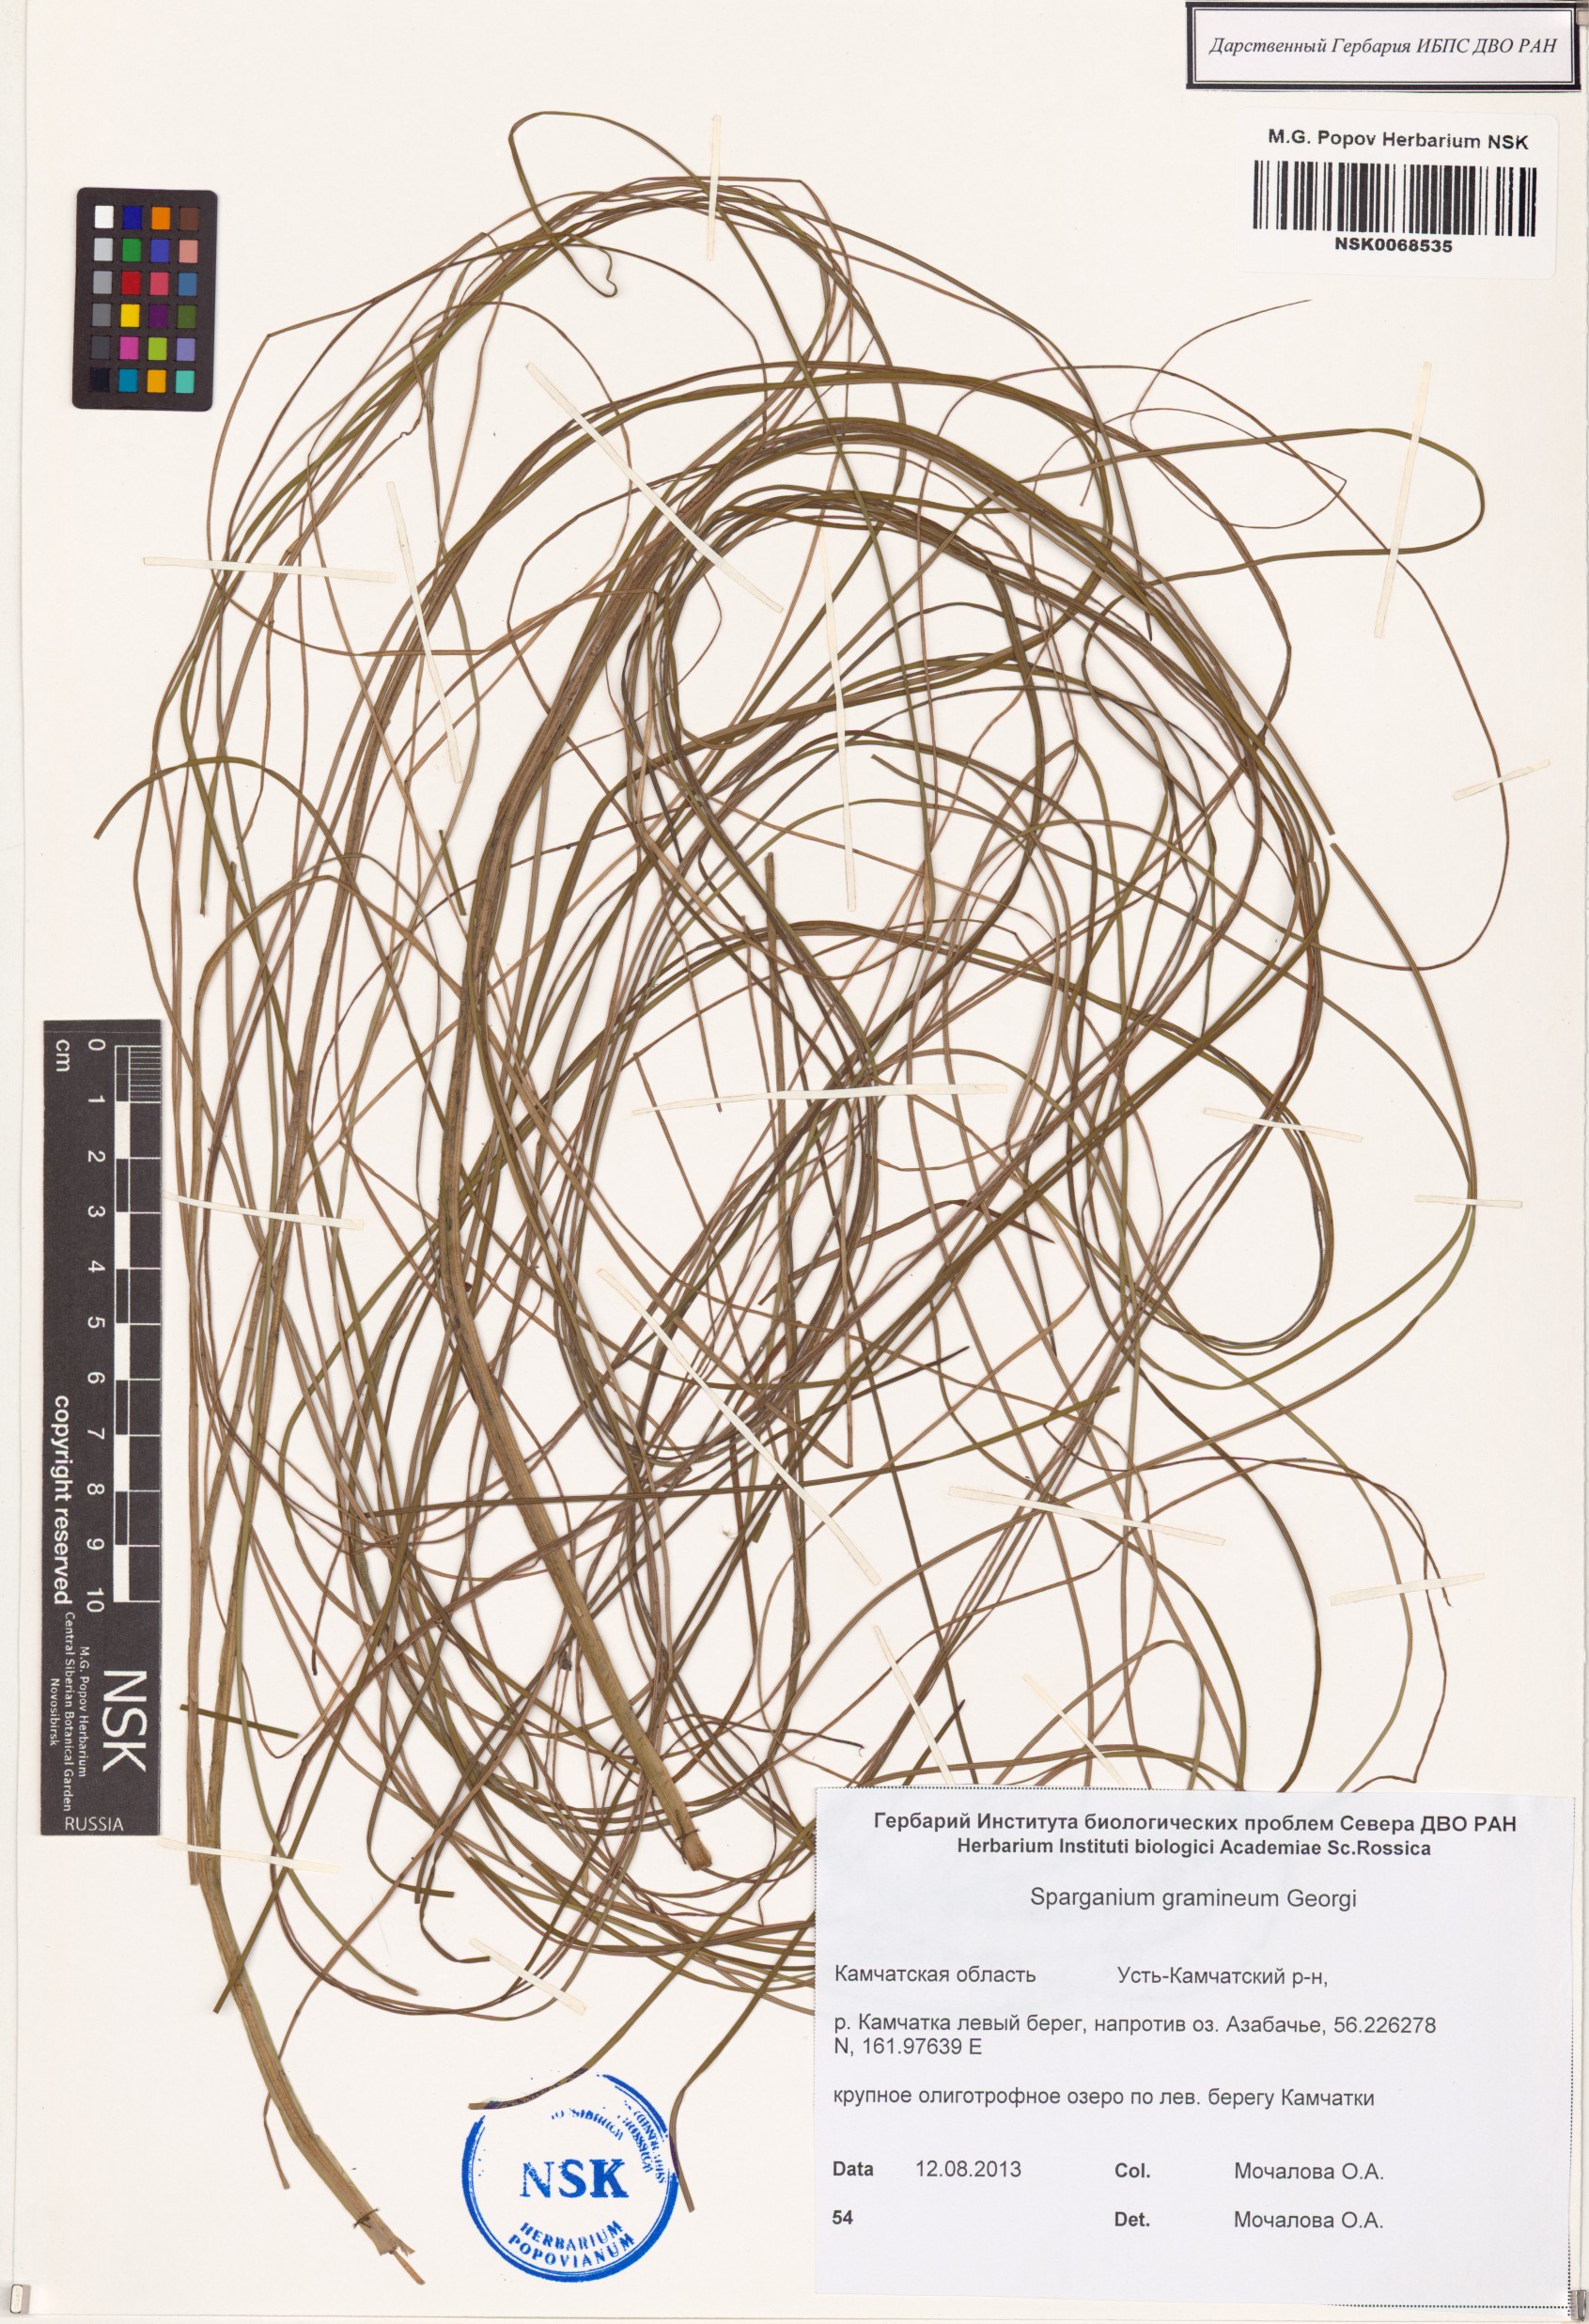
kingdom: Plantae
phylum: Tracheophyta
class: Liliopsida
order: Poales
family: Typhaceae
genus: Sparganium
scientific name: Sparganium gramineum
